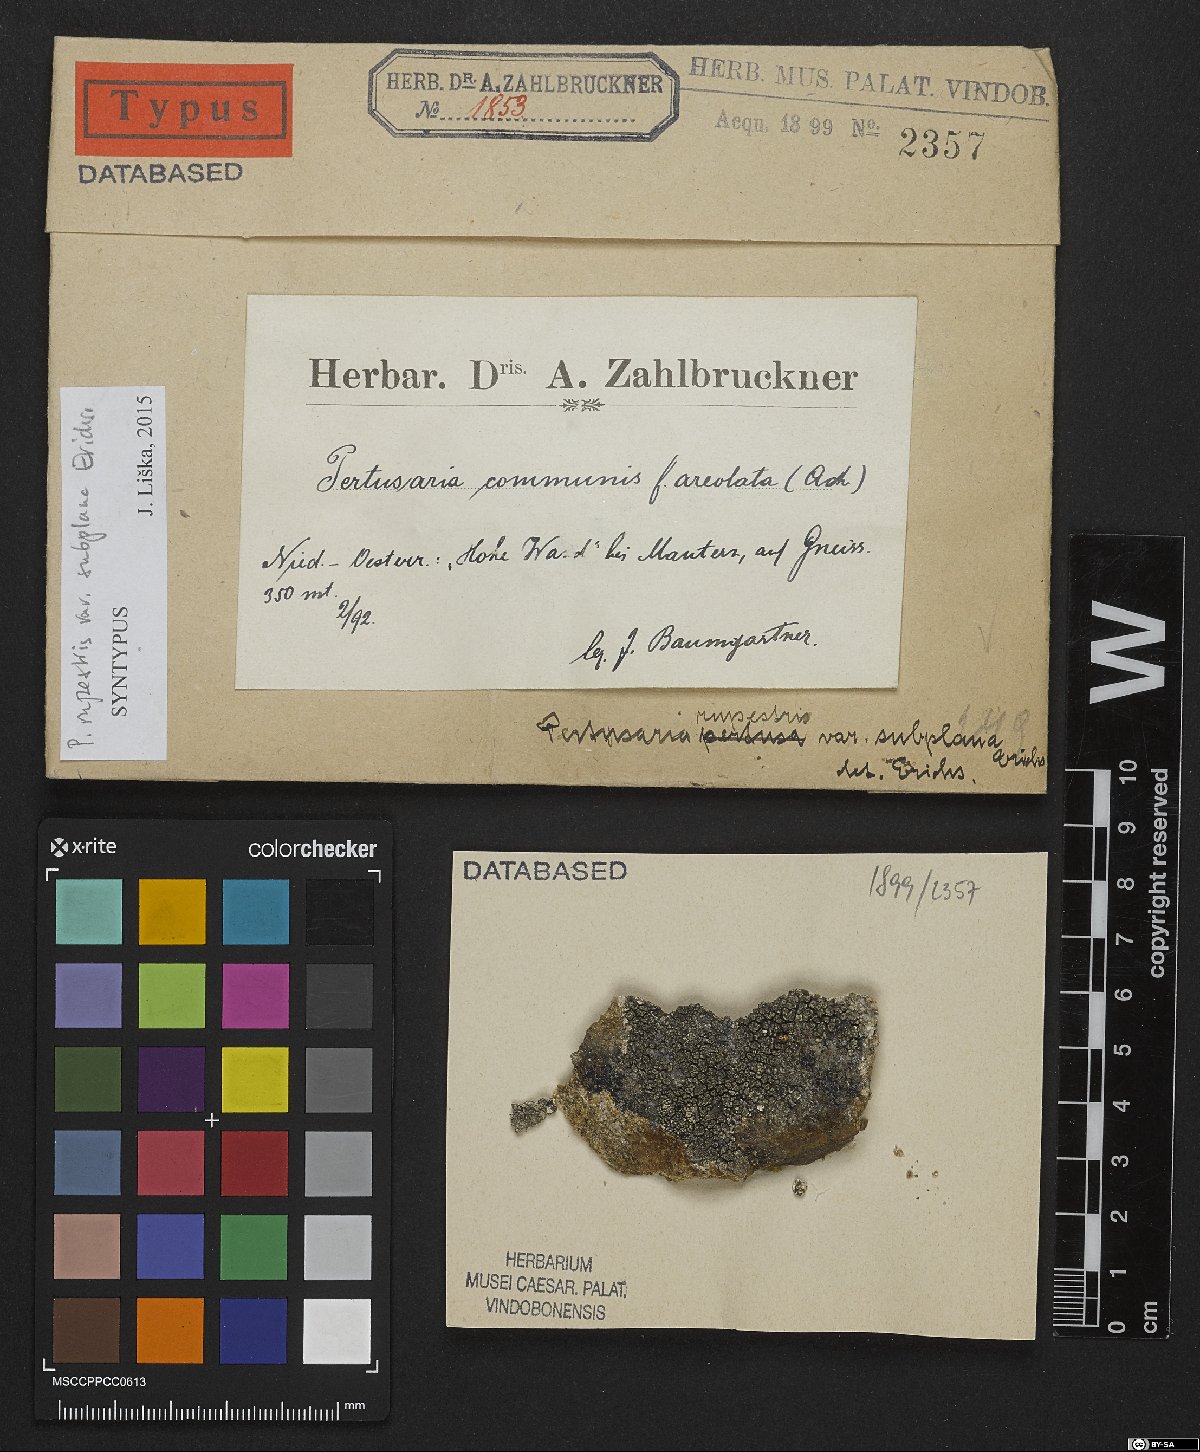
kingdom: Fungi
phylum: Ascomycota
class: Lecanoromycetes
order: Pertusariales
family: Pertusariaceae
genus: Pertusaria
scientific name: Pertusaria pertusa
